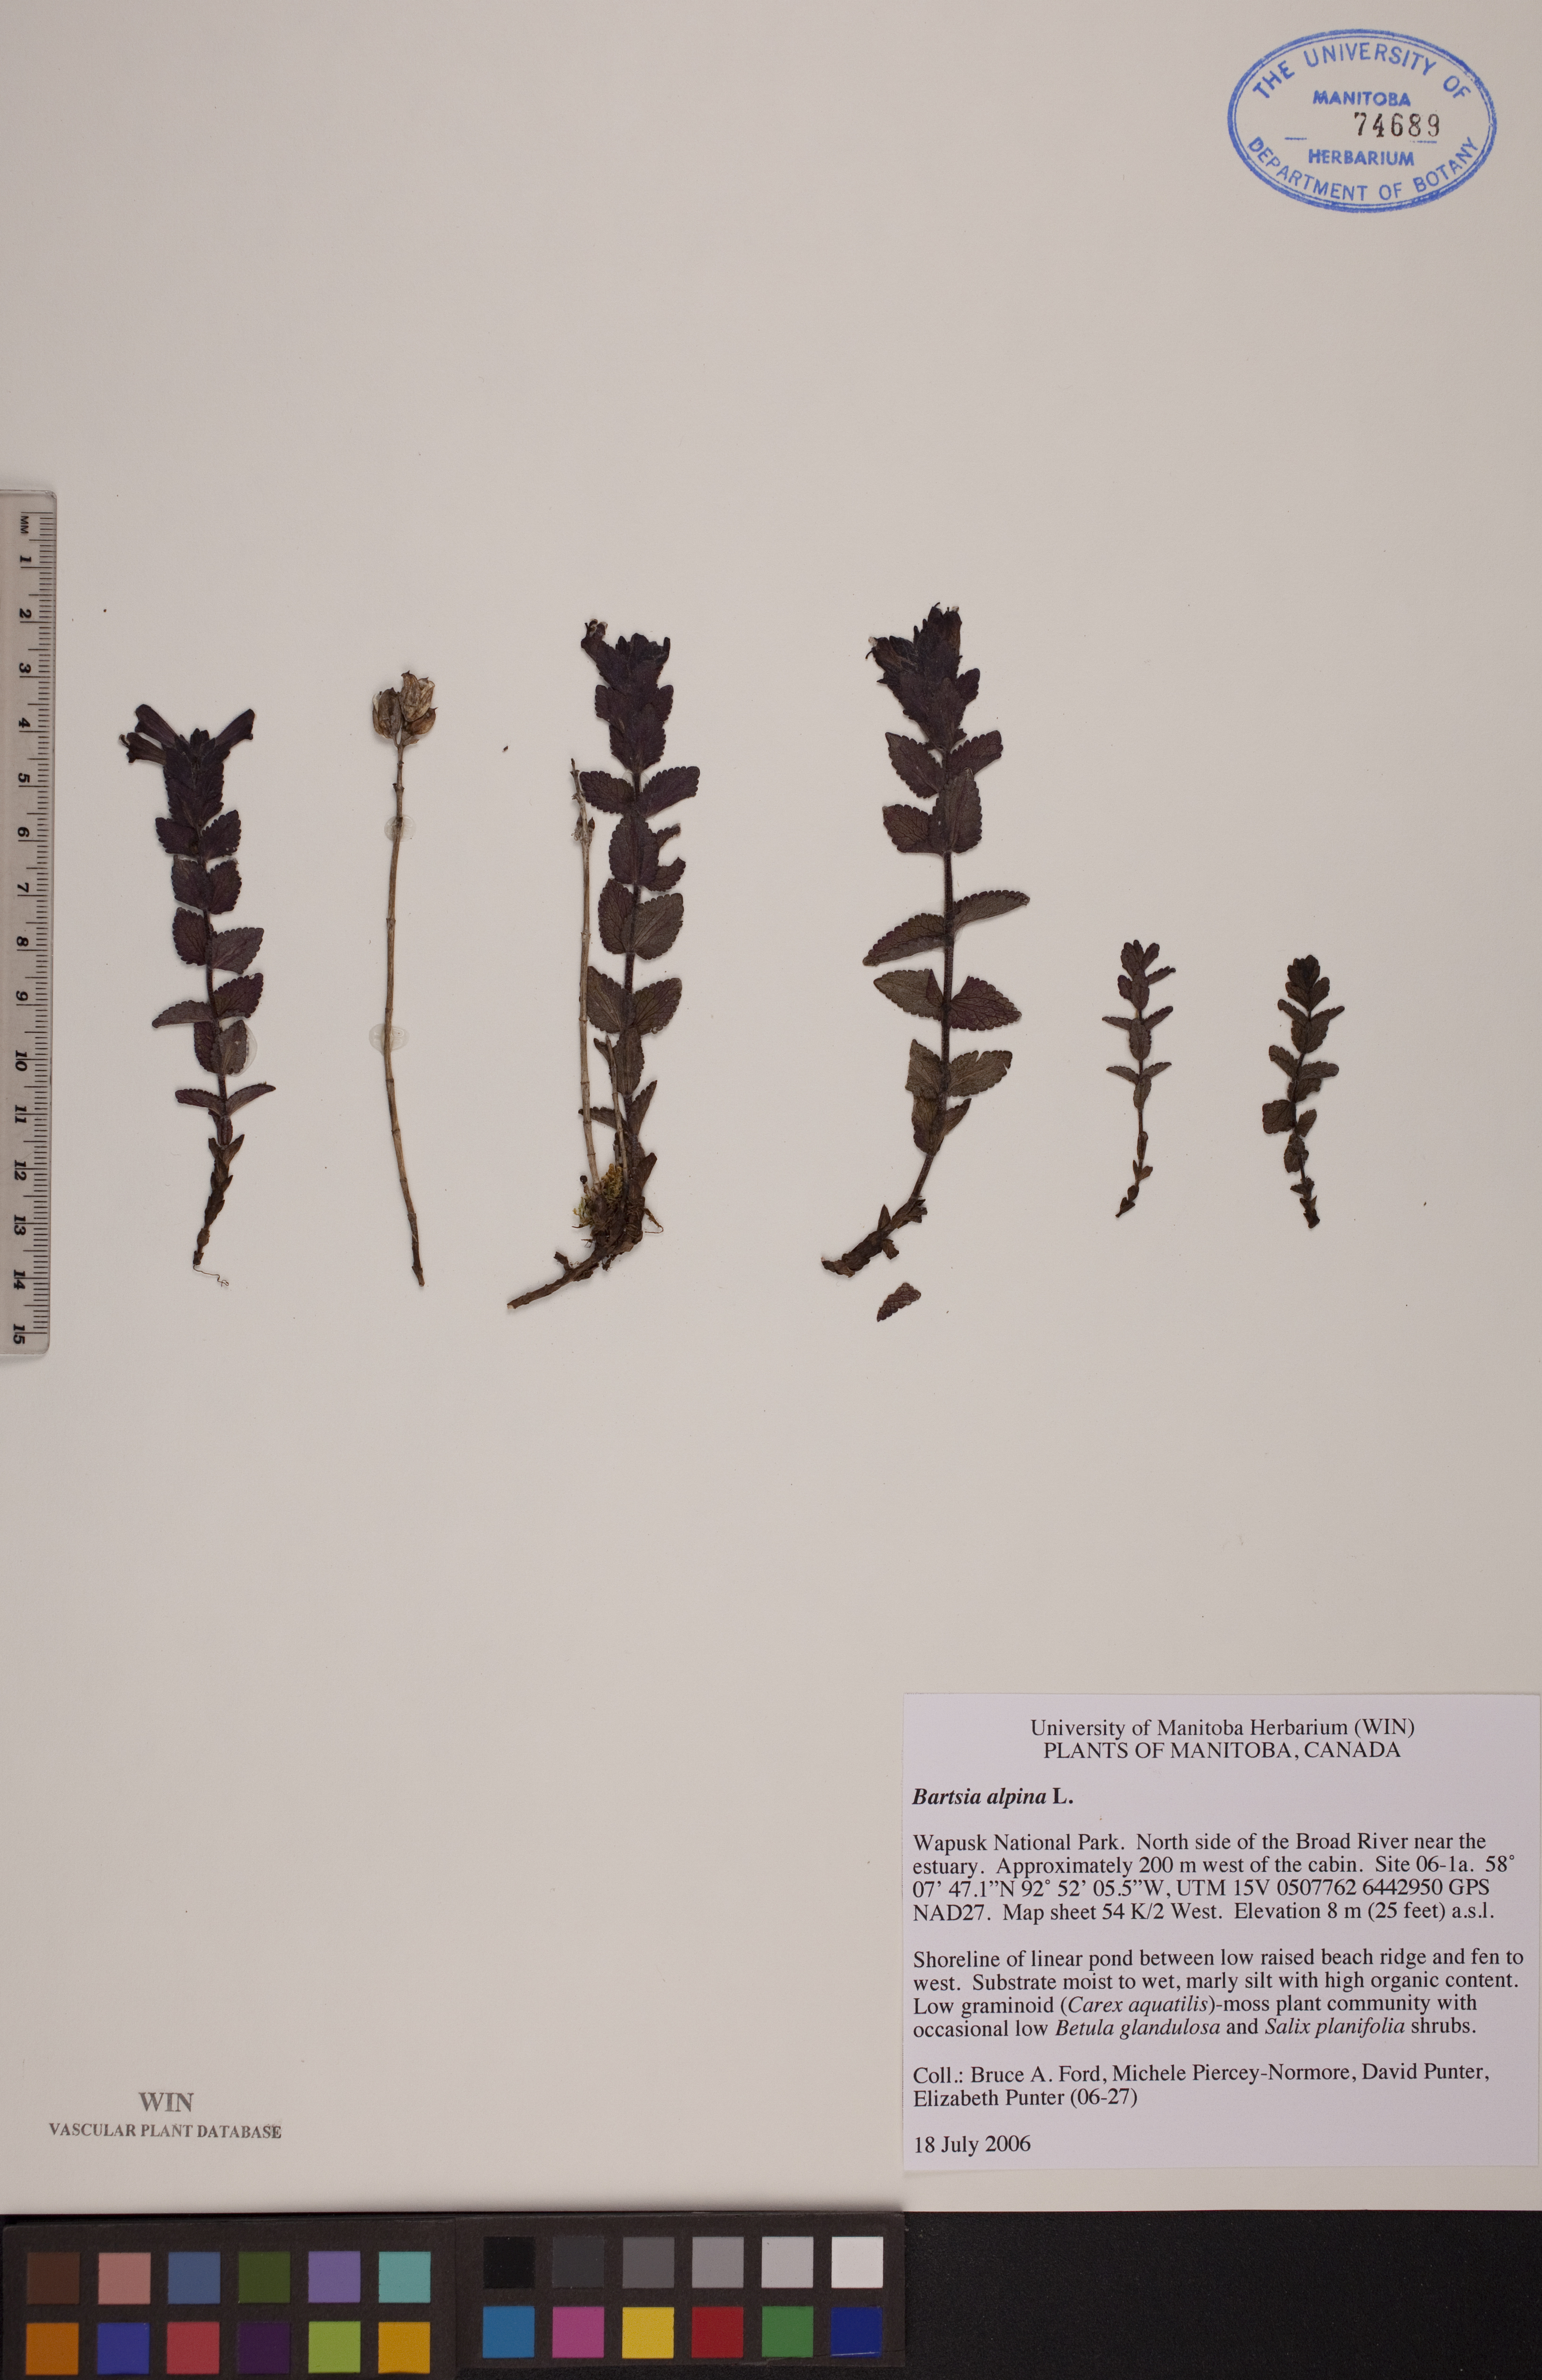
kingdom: Plantae
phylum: Tracheophyta
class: Magnoliopsida
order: Lamiales
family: Orobanchaceae
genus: Bartsia
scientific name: Bartsia alpina
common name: Alpine bartsia
